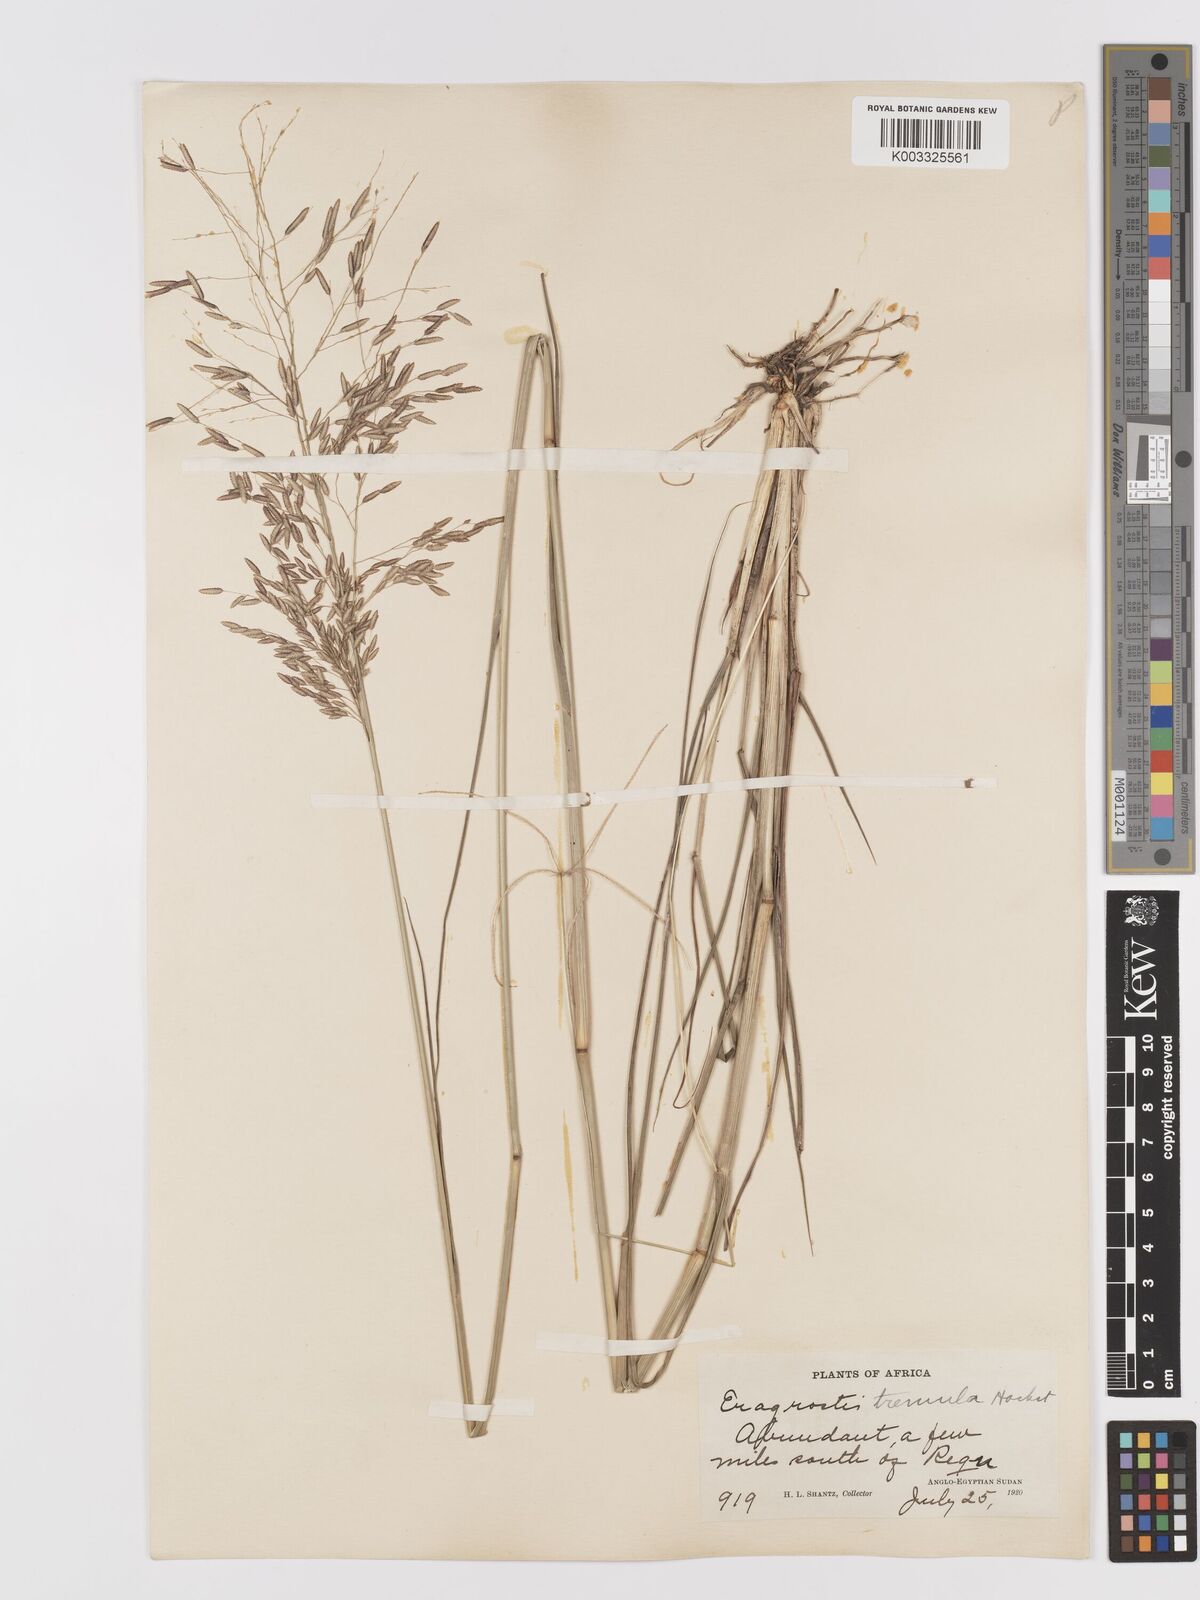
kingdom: Plantae
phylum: Tracheophyta
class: Liliopsida
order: Poales
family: Poaceae
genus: Eragrostis
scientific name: Eragrostis tremula
